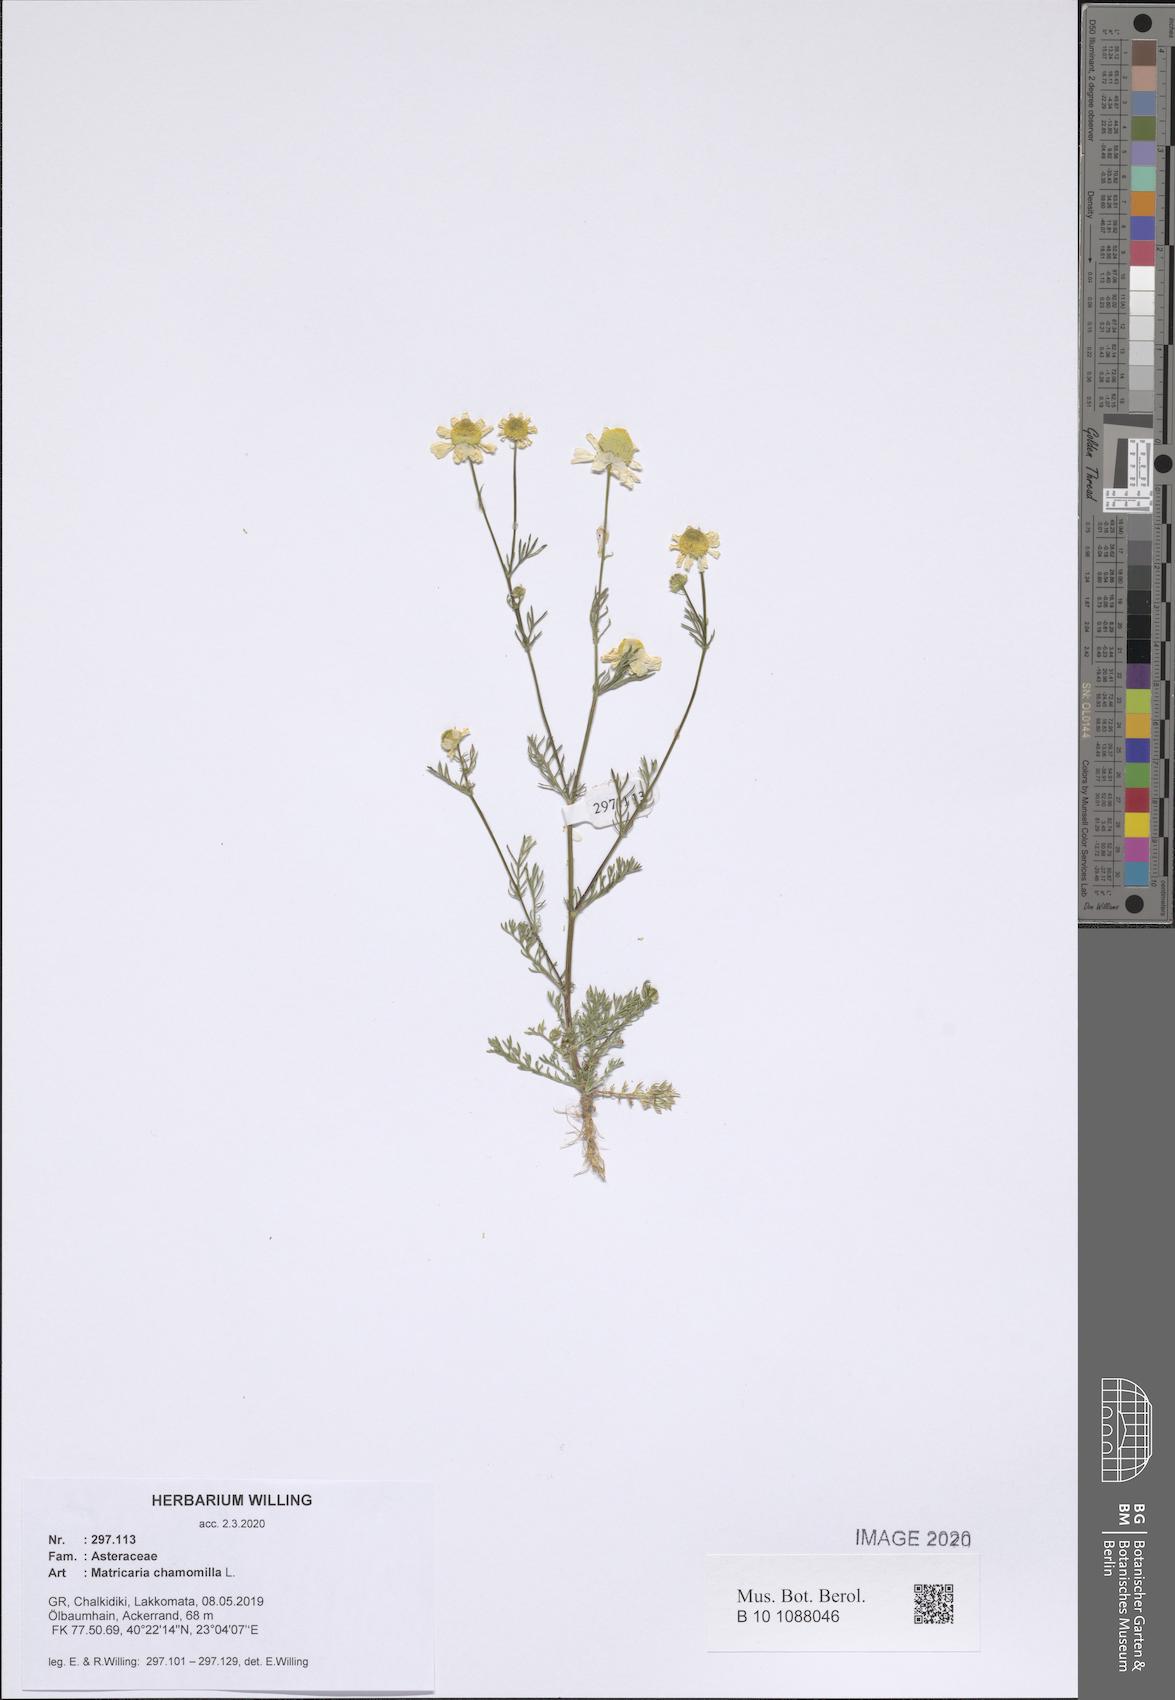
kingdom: Plantae
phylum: Tracheophyta
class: Magnoliopsida
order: Asterales
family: Asteraceae
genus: Matricaria
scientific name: Matricaria chamomilla
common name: Scented mayweed
